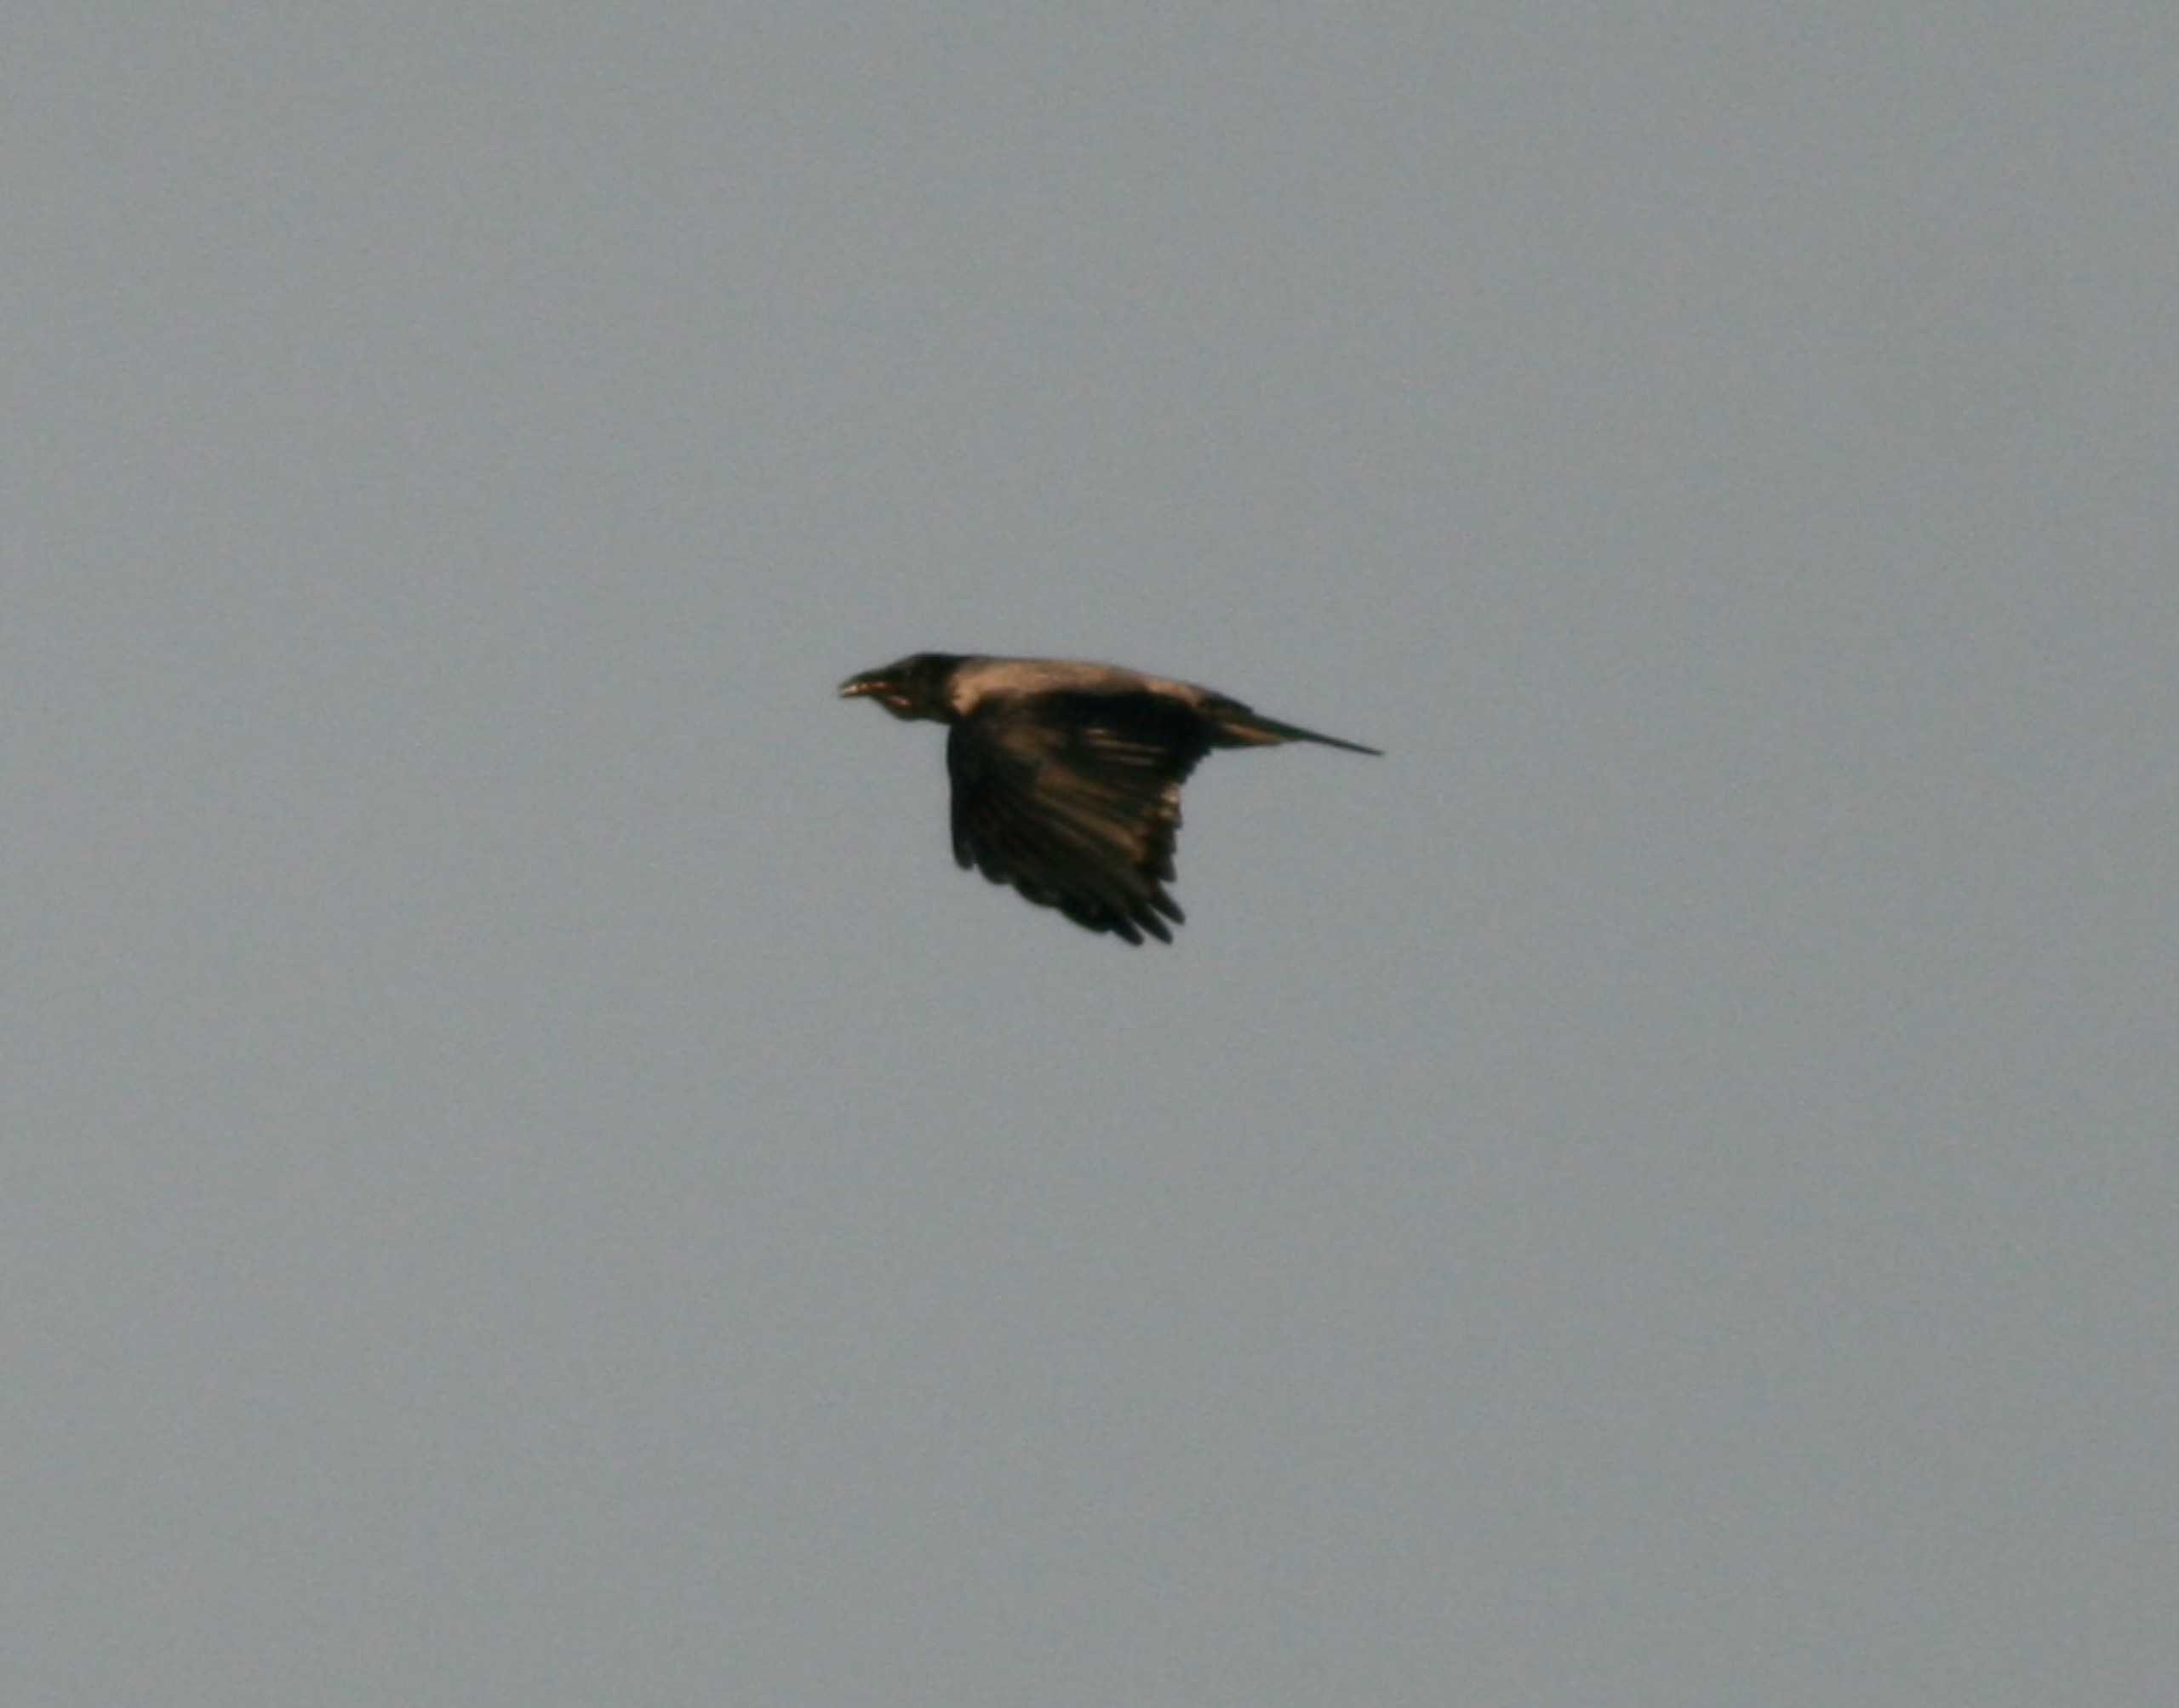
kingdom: Animalia
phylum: Chordata
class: Aves
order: Passeriformes
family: Corvidae
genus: Corvus
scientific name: Corvus cornix
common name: Gråkrage
